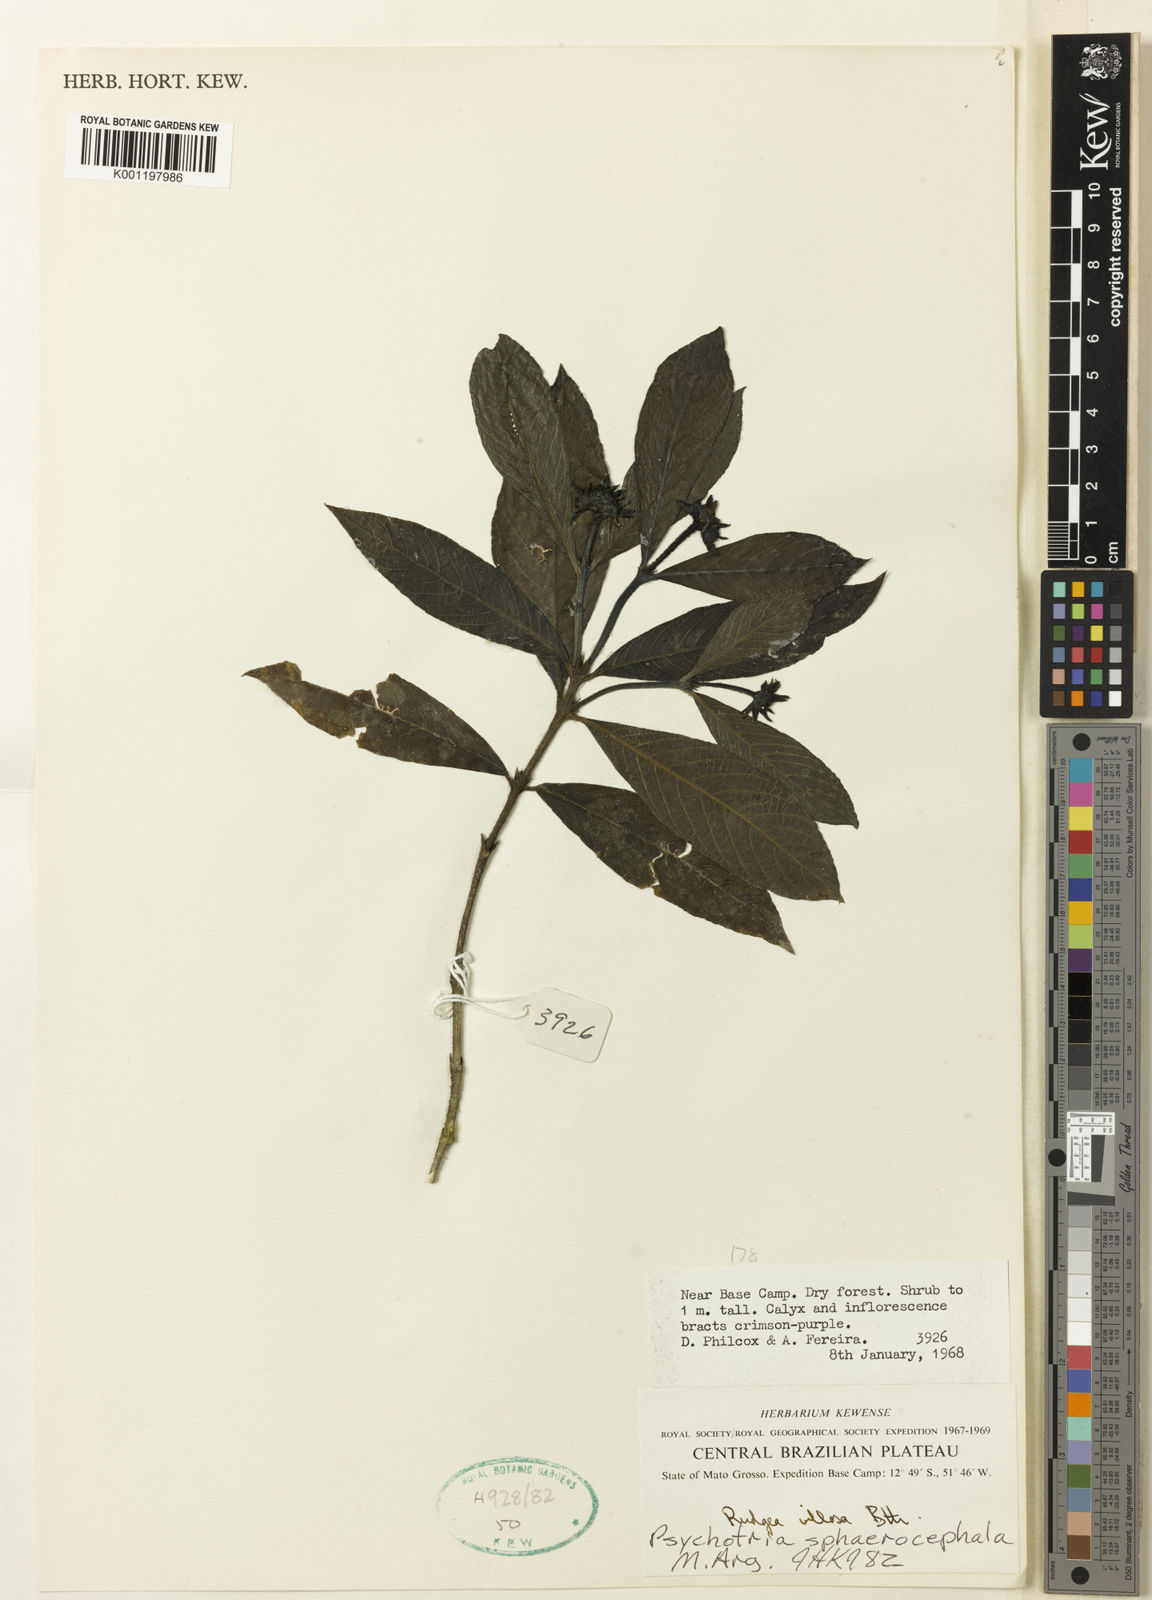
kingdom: Plantae
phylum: Tracheophyta
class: Magnoliopsida
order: Gentianales
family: Rubiaceae
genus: Psychotria
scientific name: Psychotria
